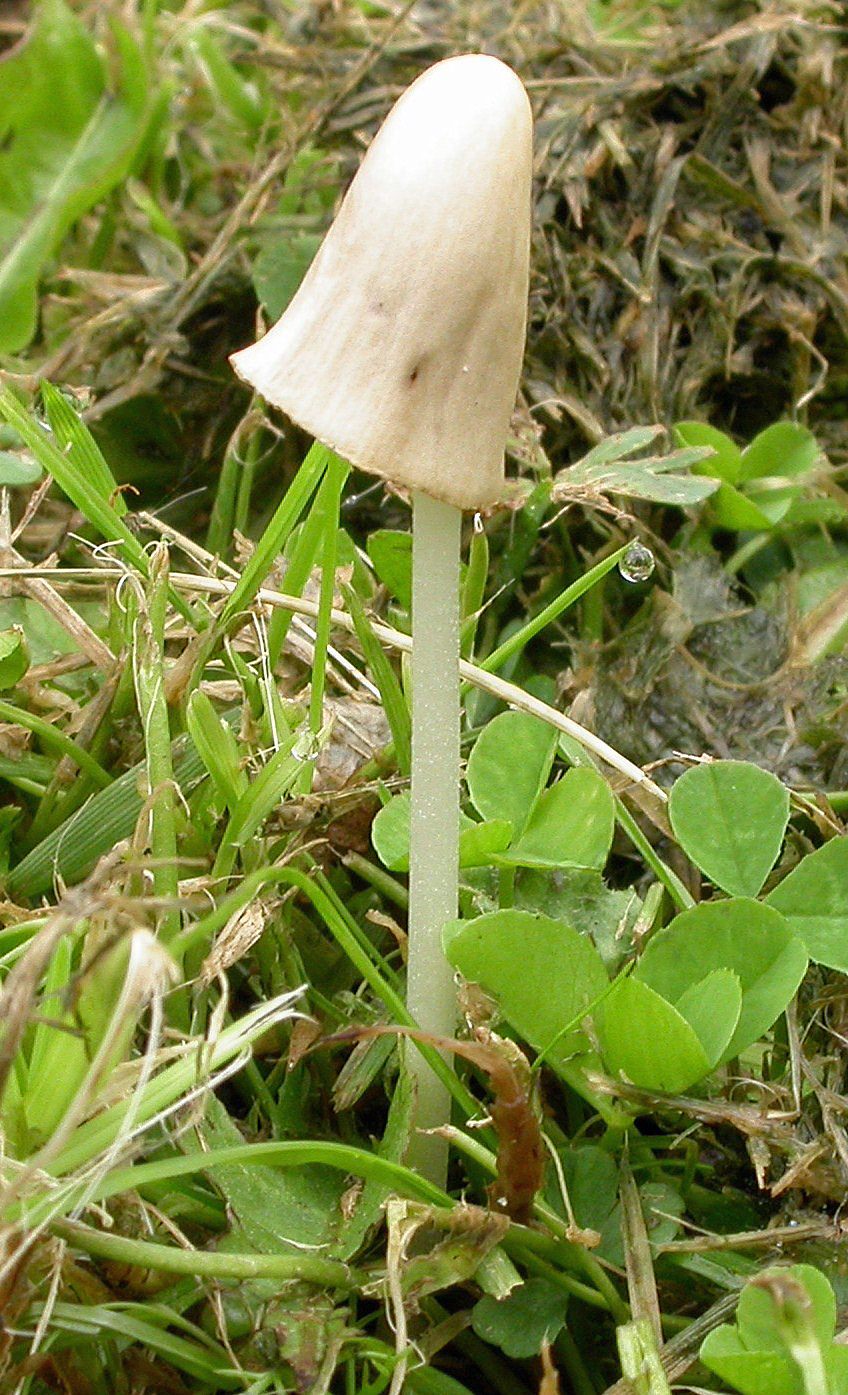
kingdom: Fungi
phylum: Basidiomycota
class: Agaricomycetes
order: Agaricales
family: Bolbitiaceae
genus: Conocybe
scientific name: Conocybe apala
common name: mælkehvid keglehat
